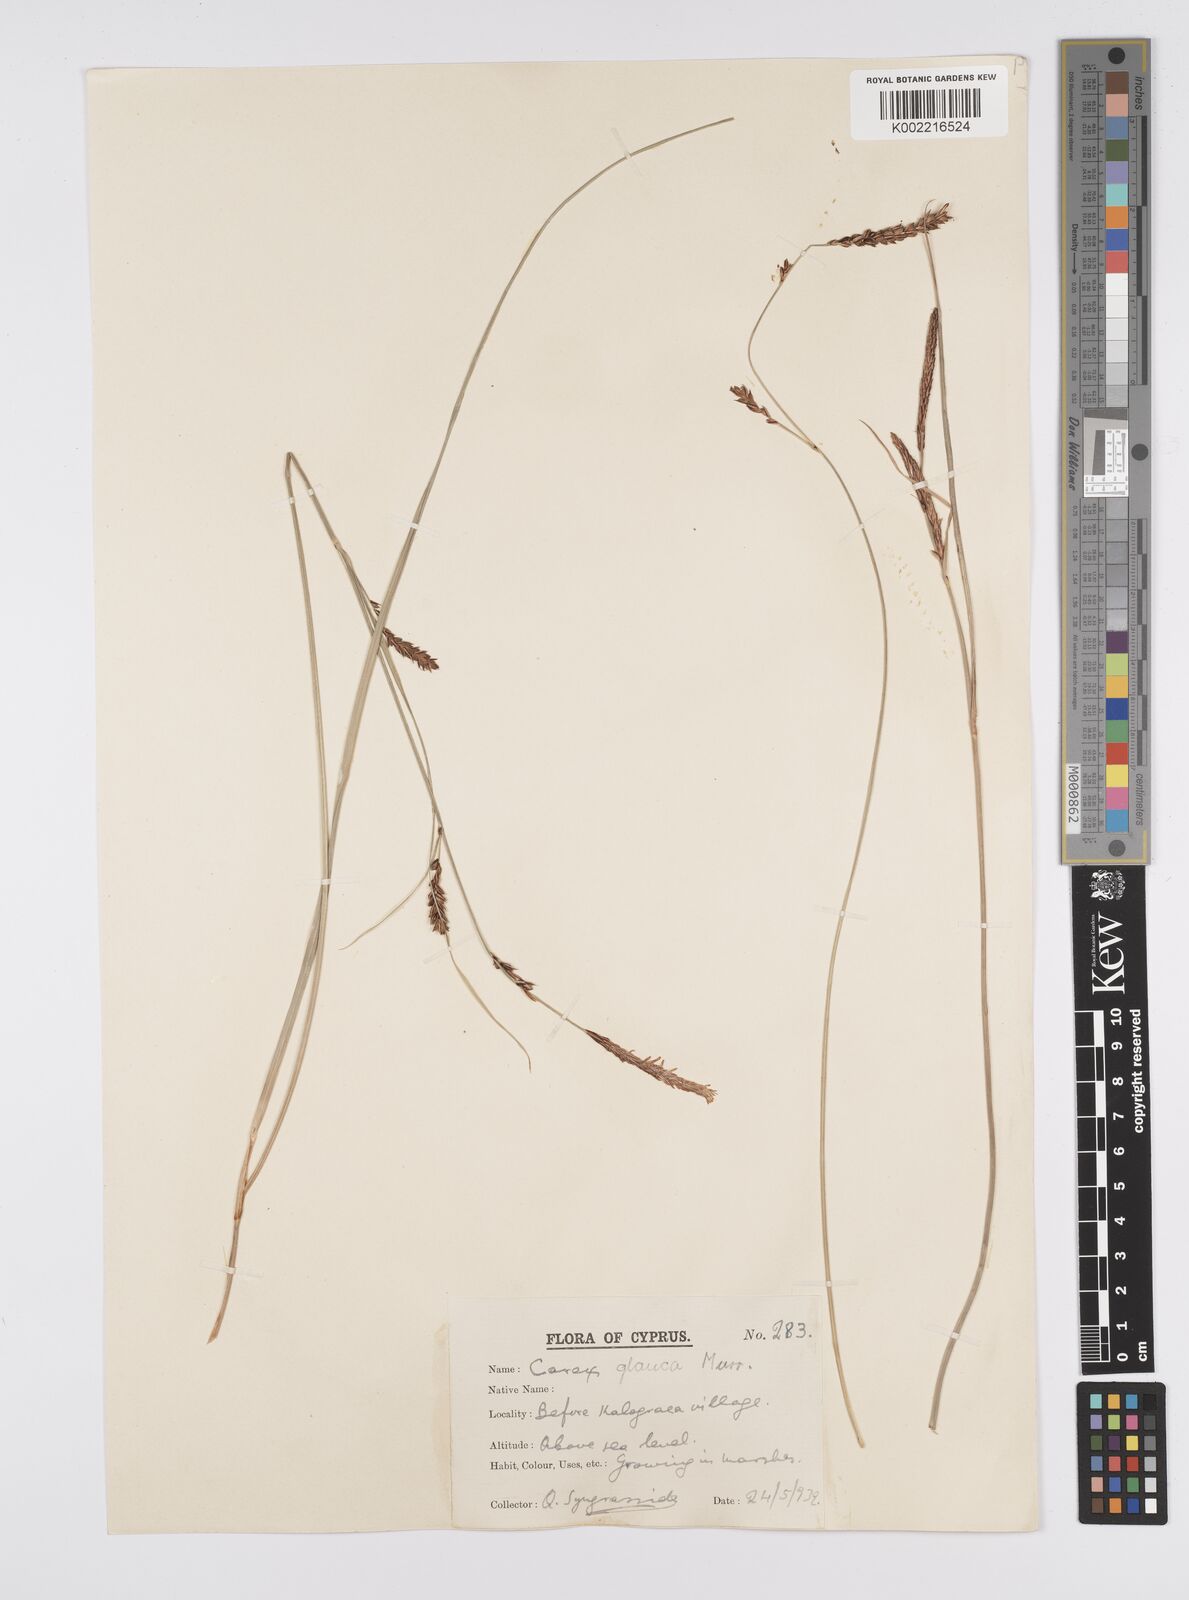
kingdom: Plantae
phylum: Tracheophyta
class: Liliopsida
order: Poales
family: Cyperaceae
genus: Carex
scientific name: Carex flacca
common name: Glaucous sedge
